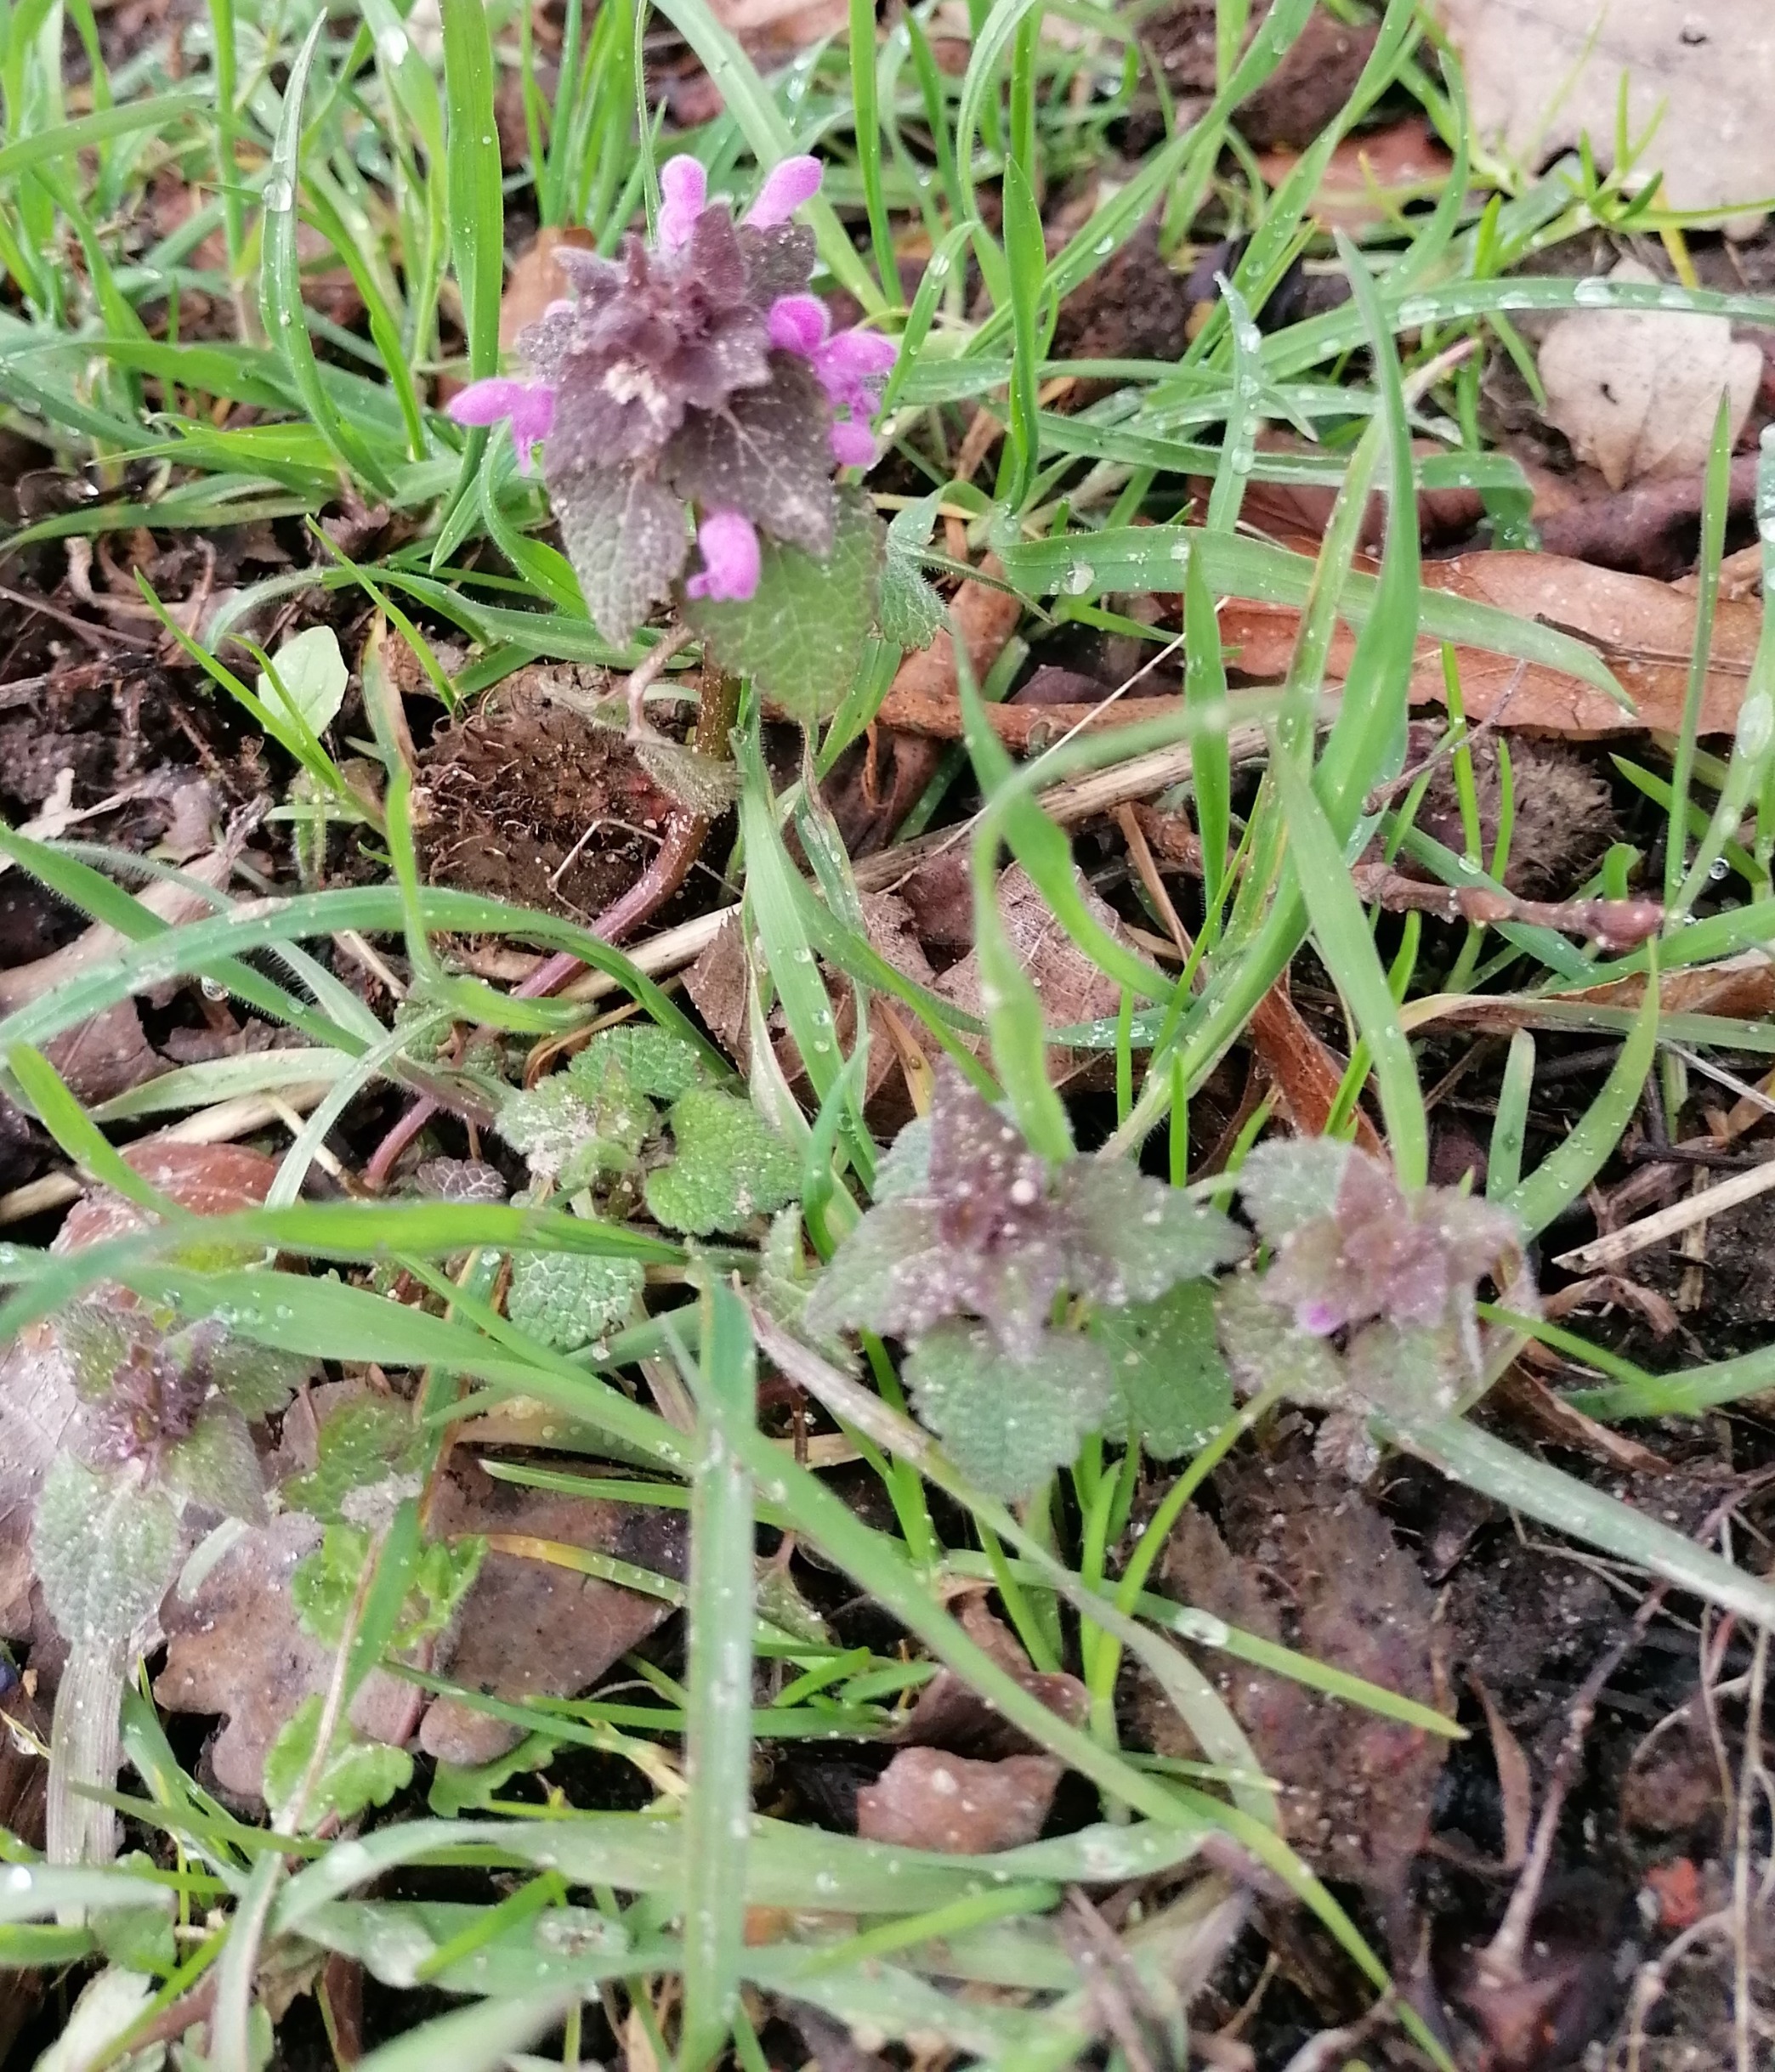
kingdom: Plantae
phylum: Tracheophyta
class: Magnoliopsida
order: Lamiales
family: Lamiaceae
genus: Lamium
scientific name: Lamium purpureum
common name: Rød tvetand
